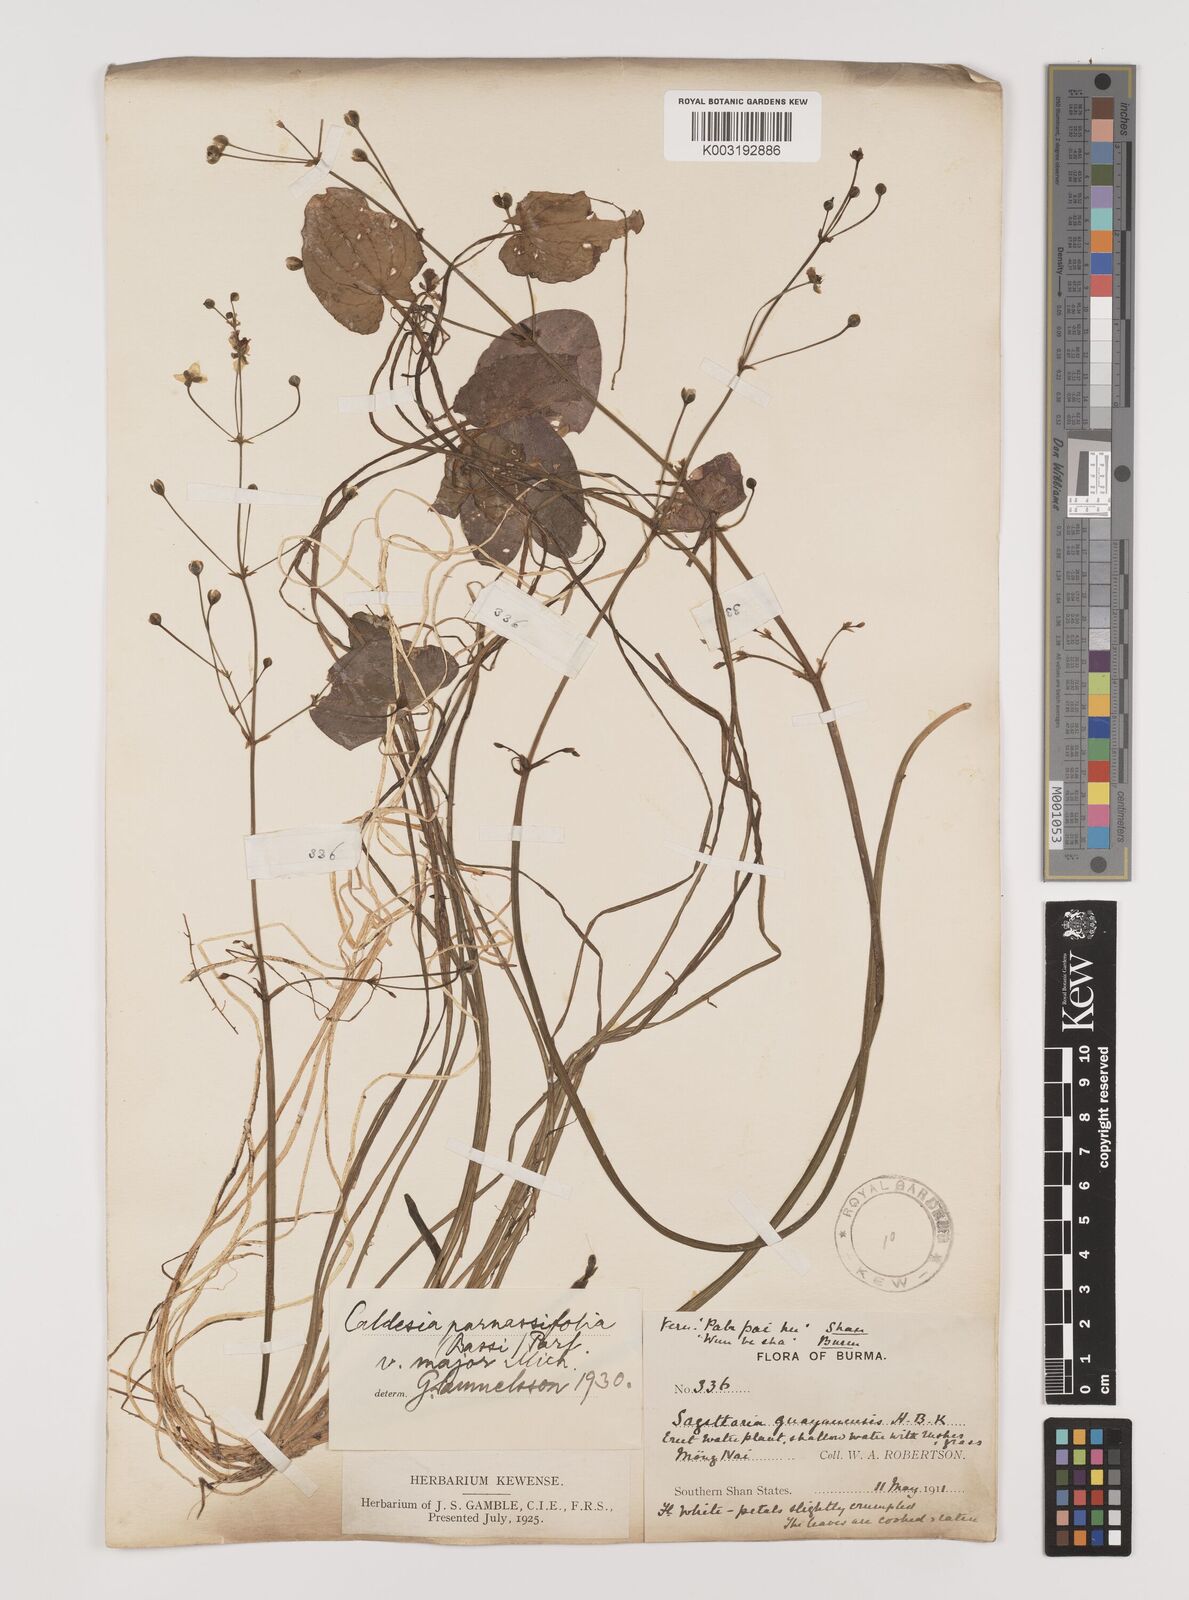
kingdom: Plantae
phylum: Tracheophyta
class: Liliopsida
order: Alismatales
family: Alismataceae
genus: Caldesia
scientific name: Caldesia parnassifolia
